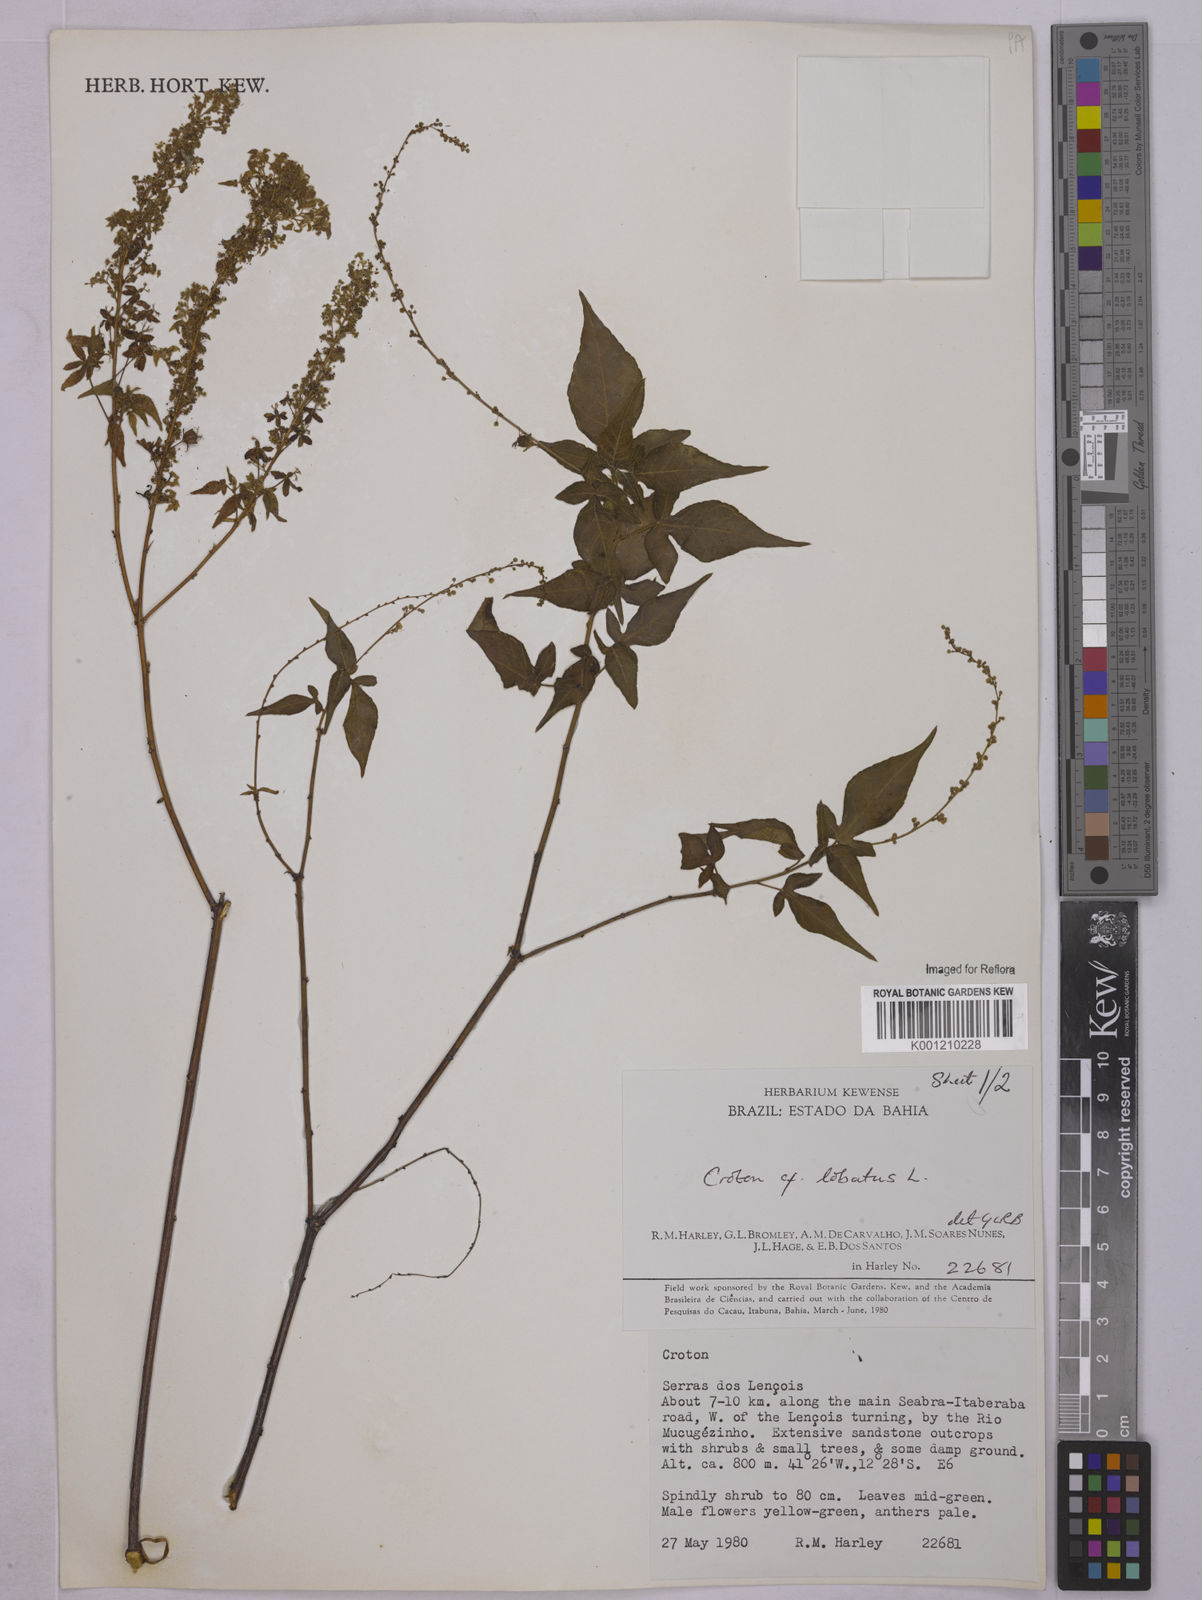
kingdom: Plantae
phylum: Tracheophyta
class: Magnoliopsida
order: Malpighiales
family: Euphorbiaceae
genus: Astraea
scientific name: Astraea lobata
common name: Lobed croton
